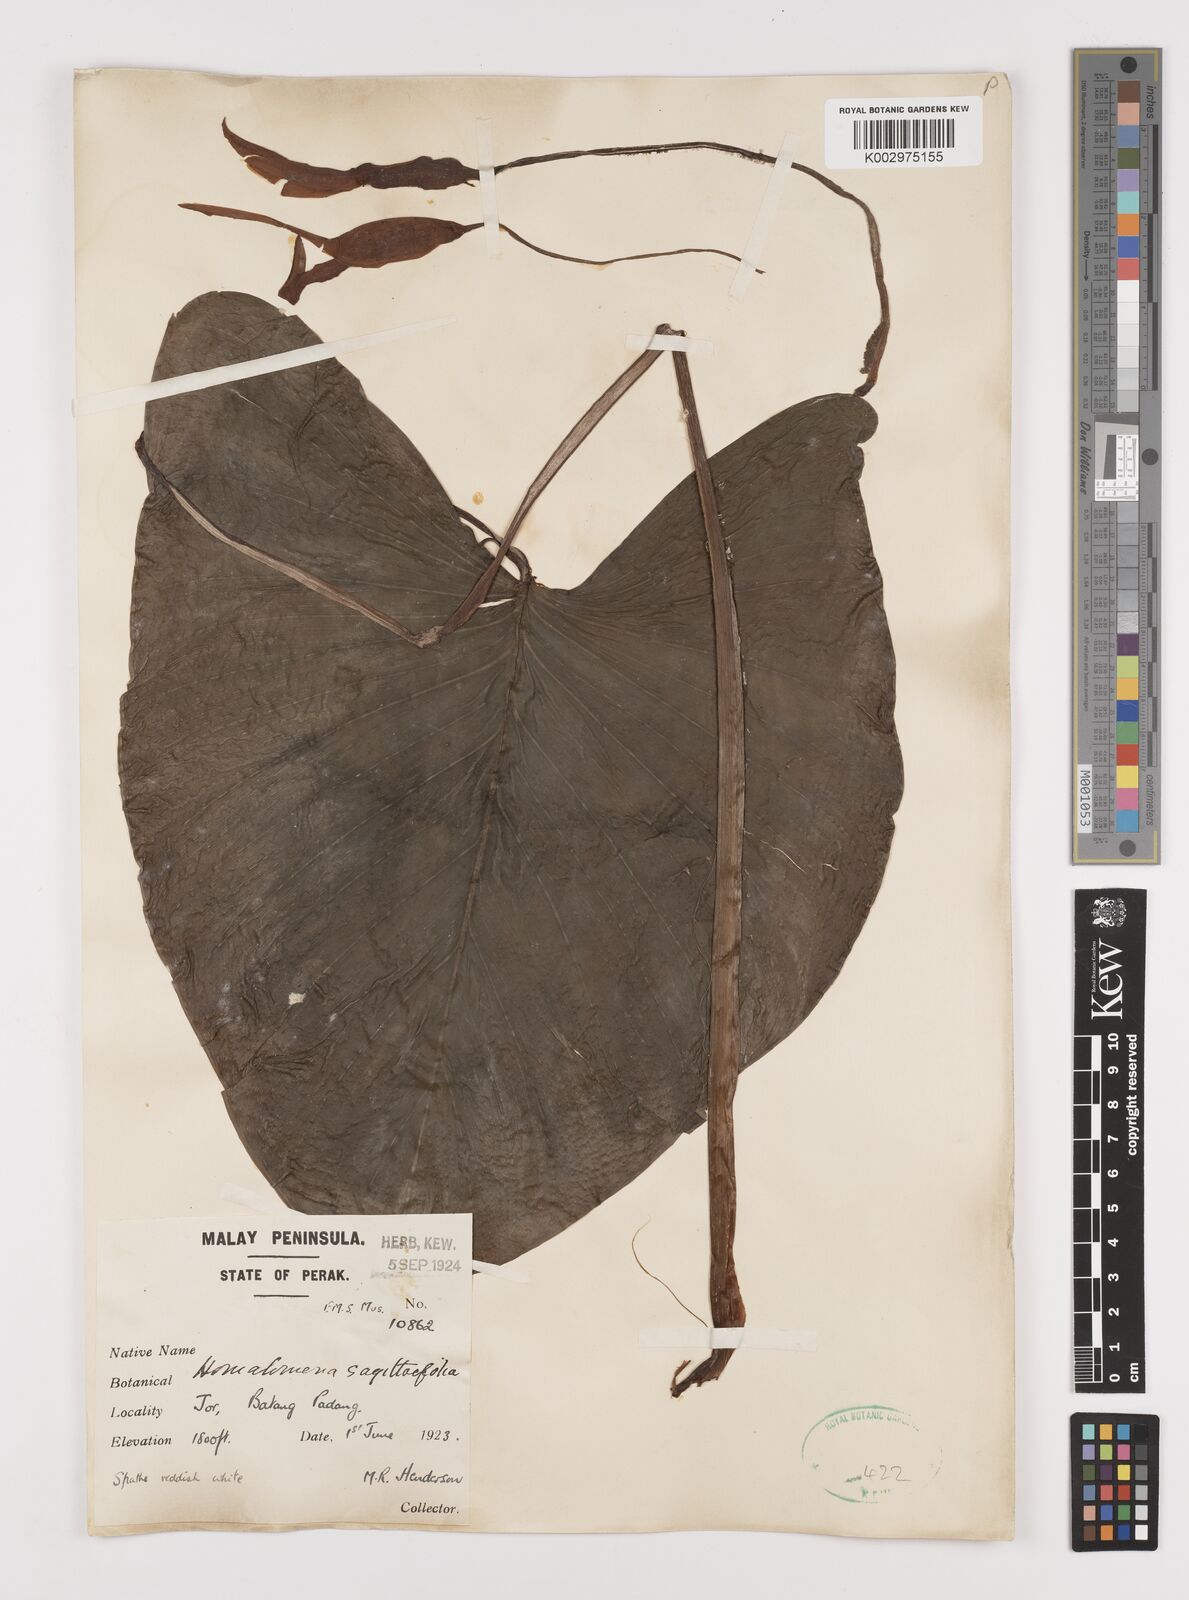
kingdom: Plantae
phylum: Tracheophyta
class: Liliopsida
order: Alismatales
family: Araceae
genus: Homalomena
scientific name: Homalomena rostrata
